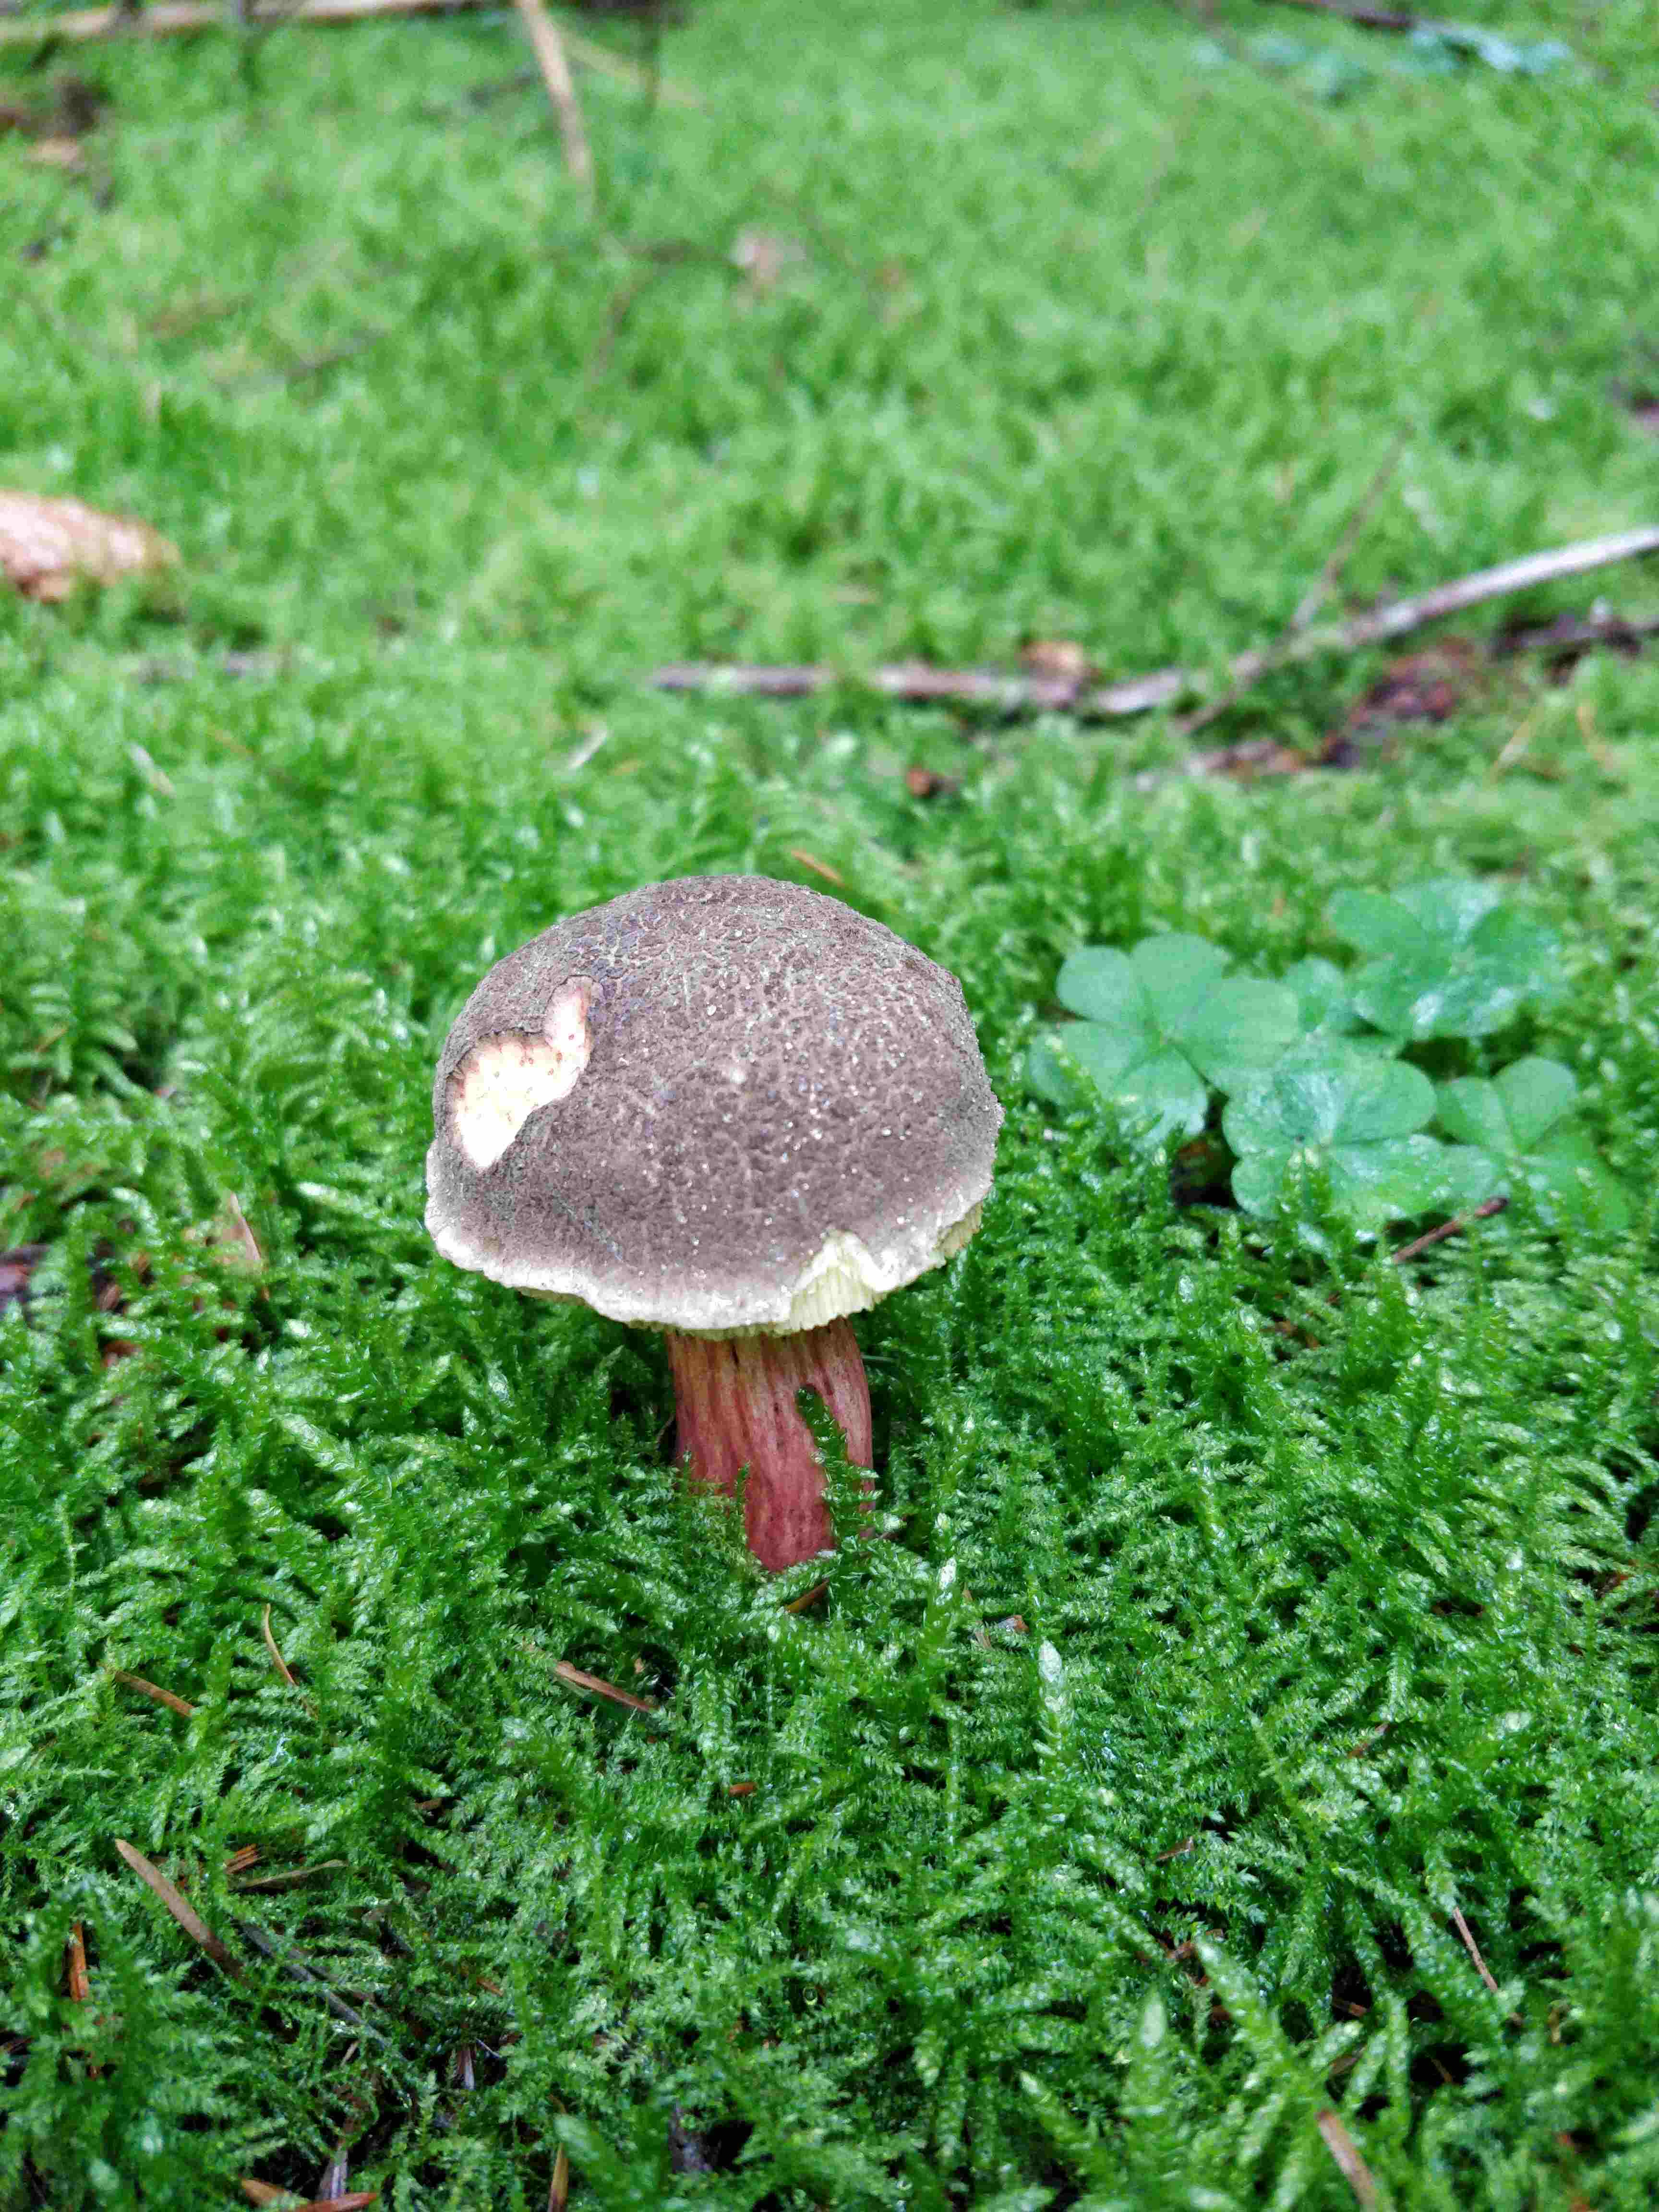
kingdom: Fungi
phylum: Basidiomycota
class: Agaricomycetes
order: Boletales
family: Boletaceae
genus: Xerocomellus
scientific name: Xerocomellus
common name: dværgrørhat
